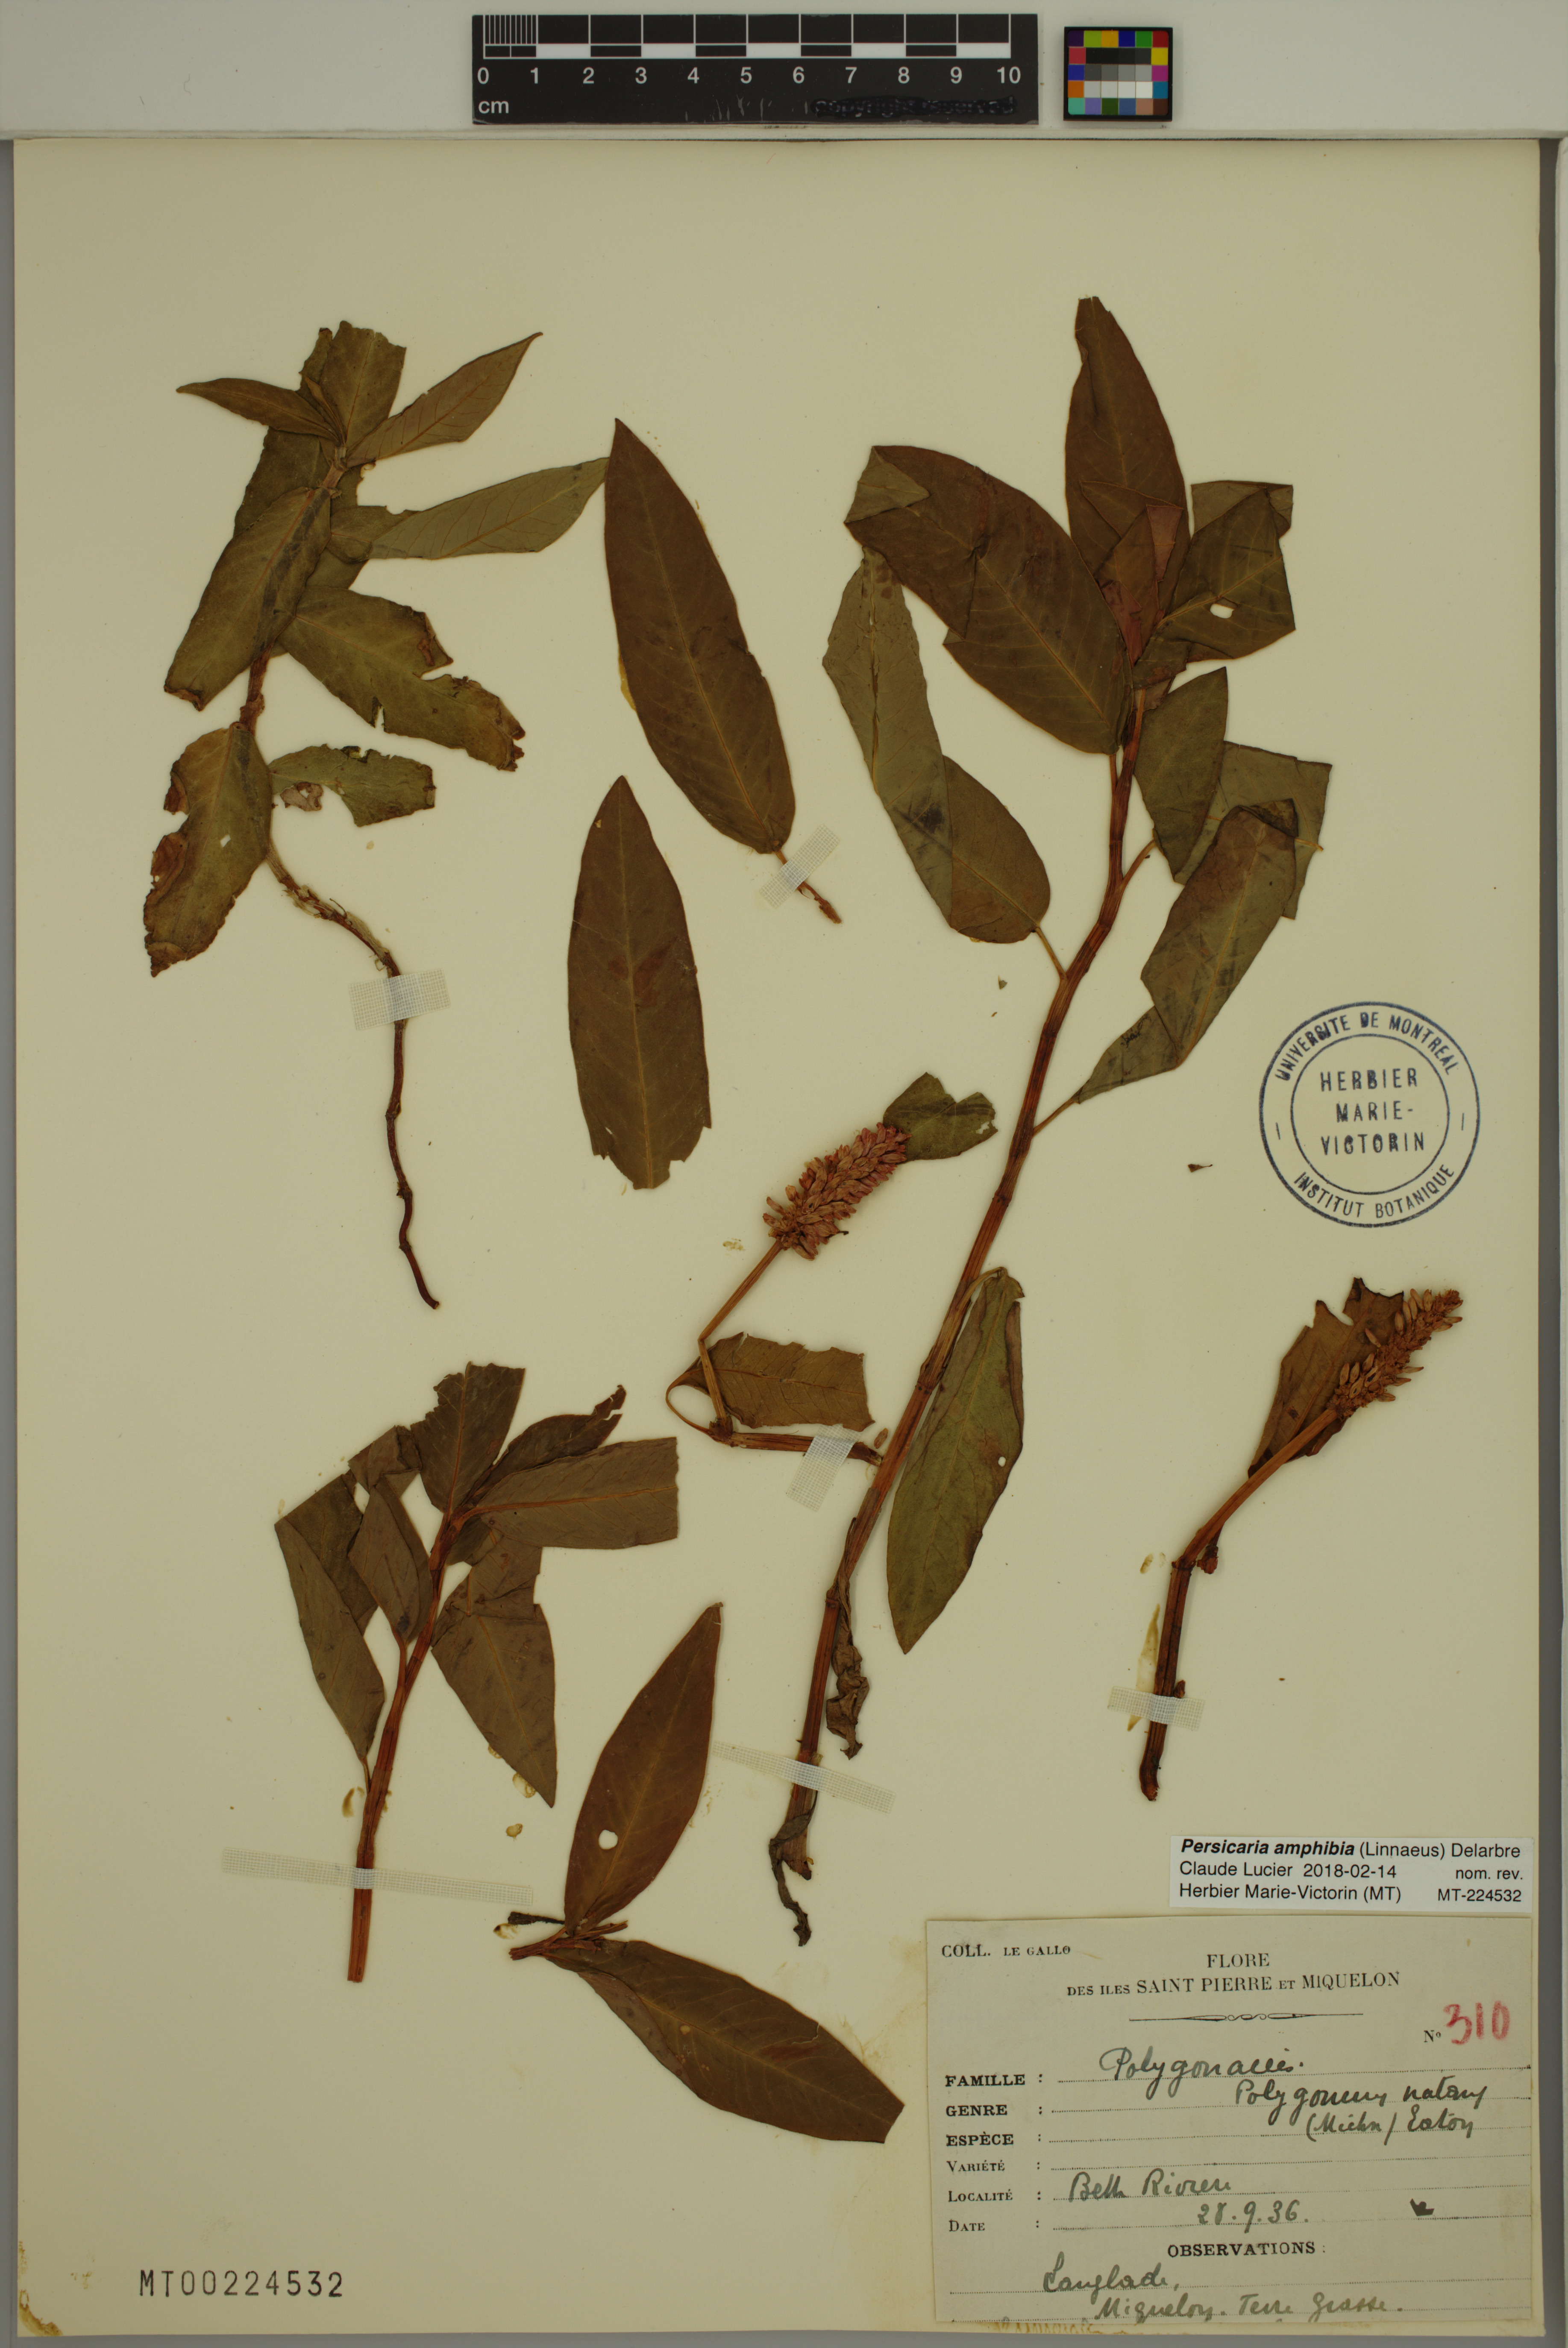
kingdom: Plantae
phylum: Tracheophyta
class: Magnoliopsida
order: Caryophyllales
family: Polygonaceae
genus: Persicaria
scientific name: Persicaria amphibia
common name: Amphibious bistort
